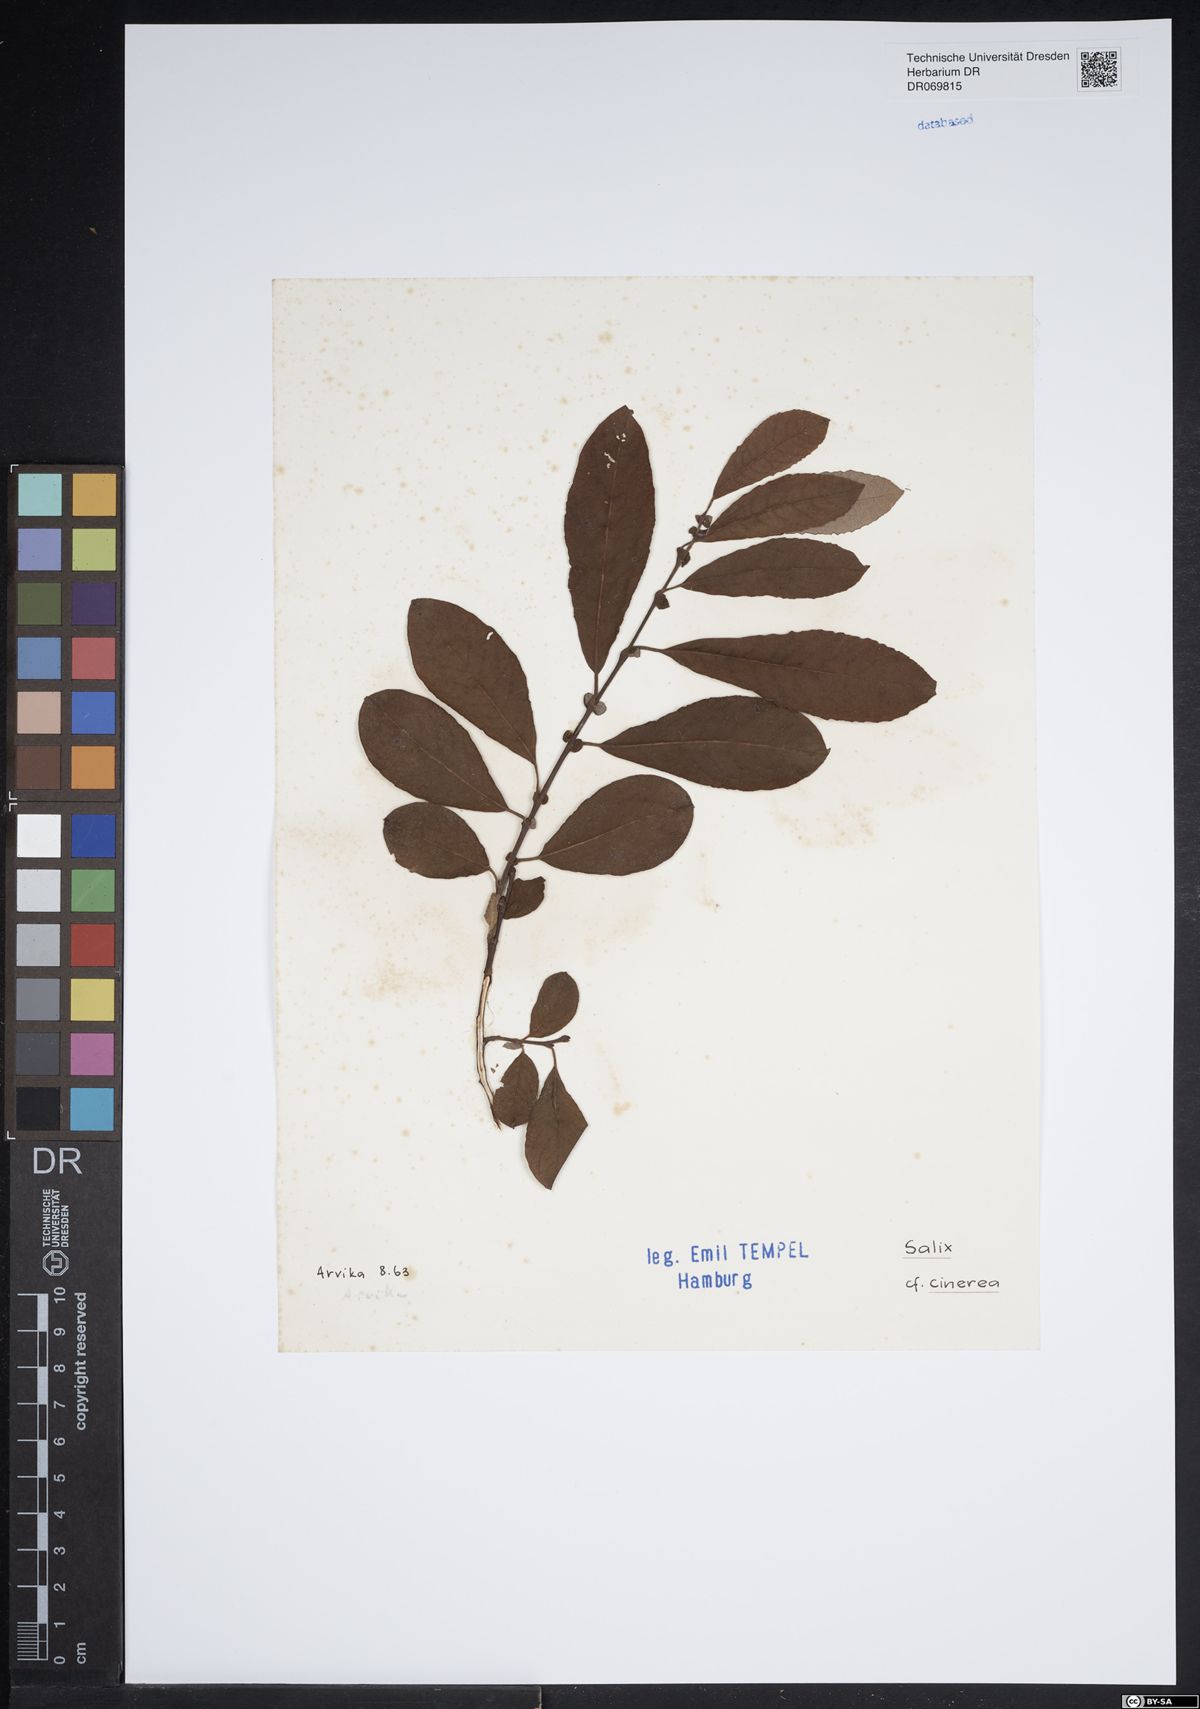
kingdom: Plantae
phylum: Tracheophyta
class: Magnoliopsida
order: Malpighiales
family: Salicaceae
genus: Salix
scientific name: Salix cinerea
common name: Common sallow
